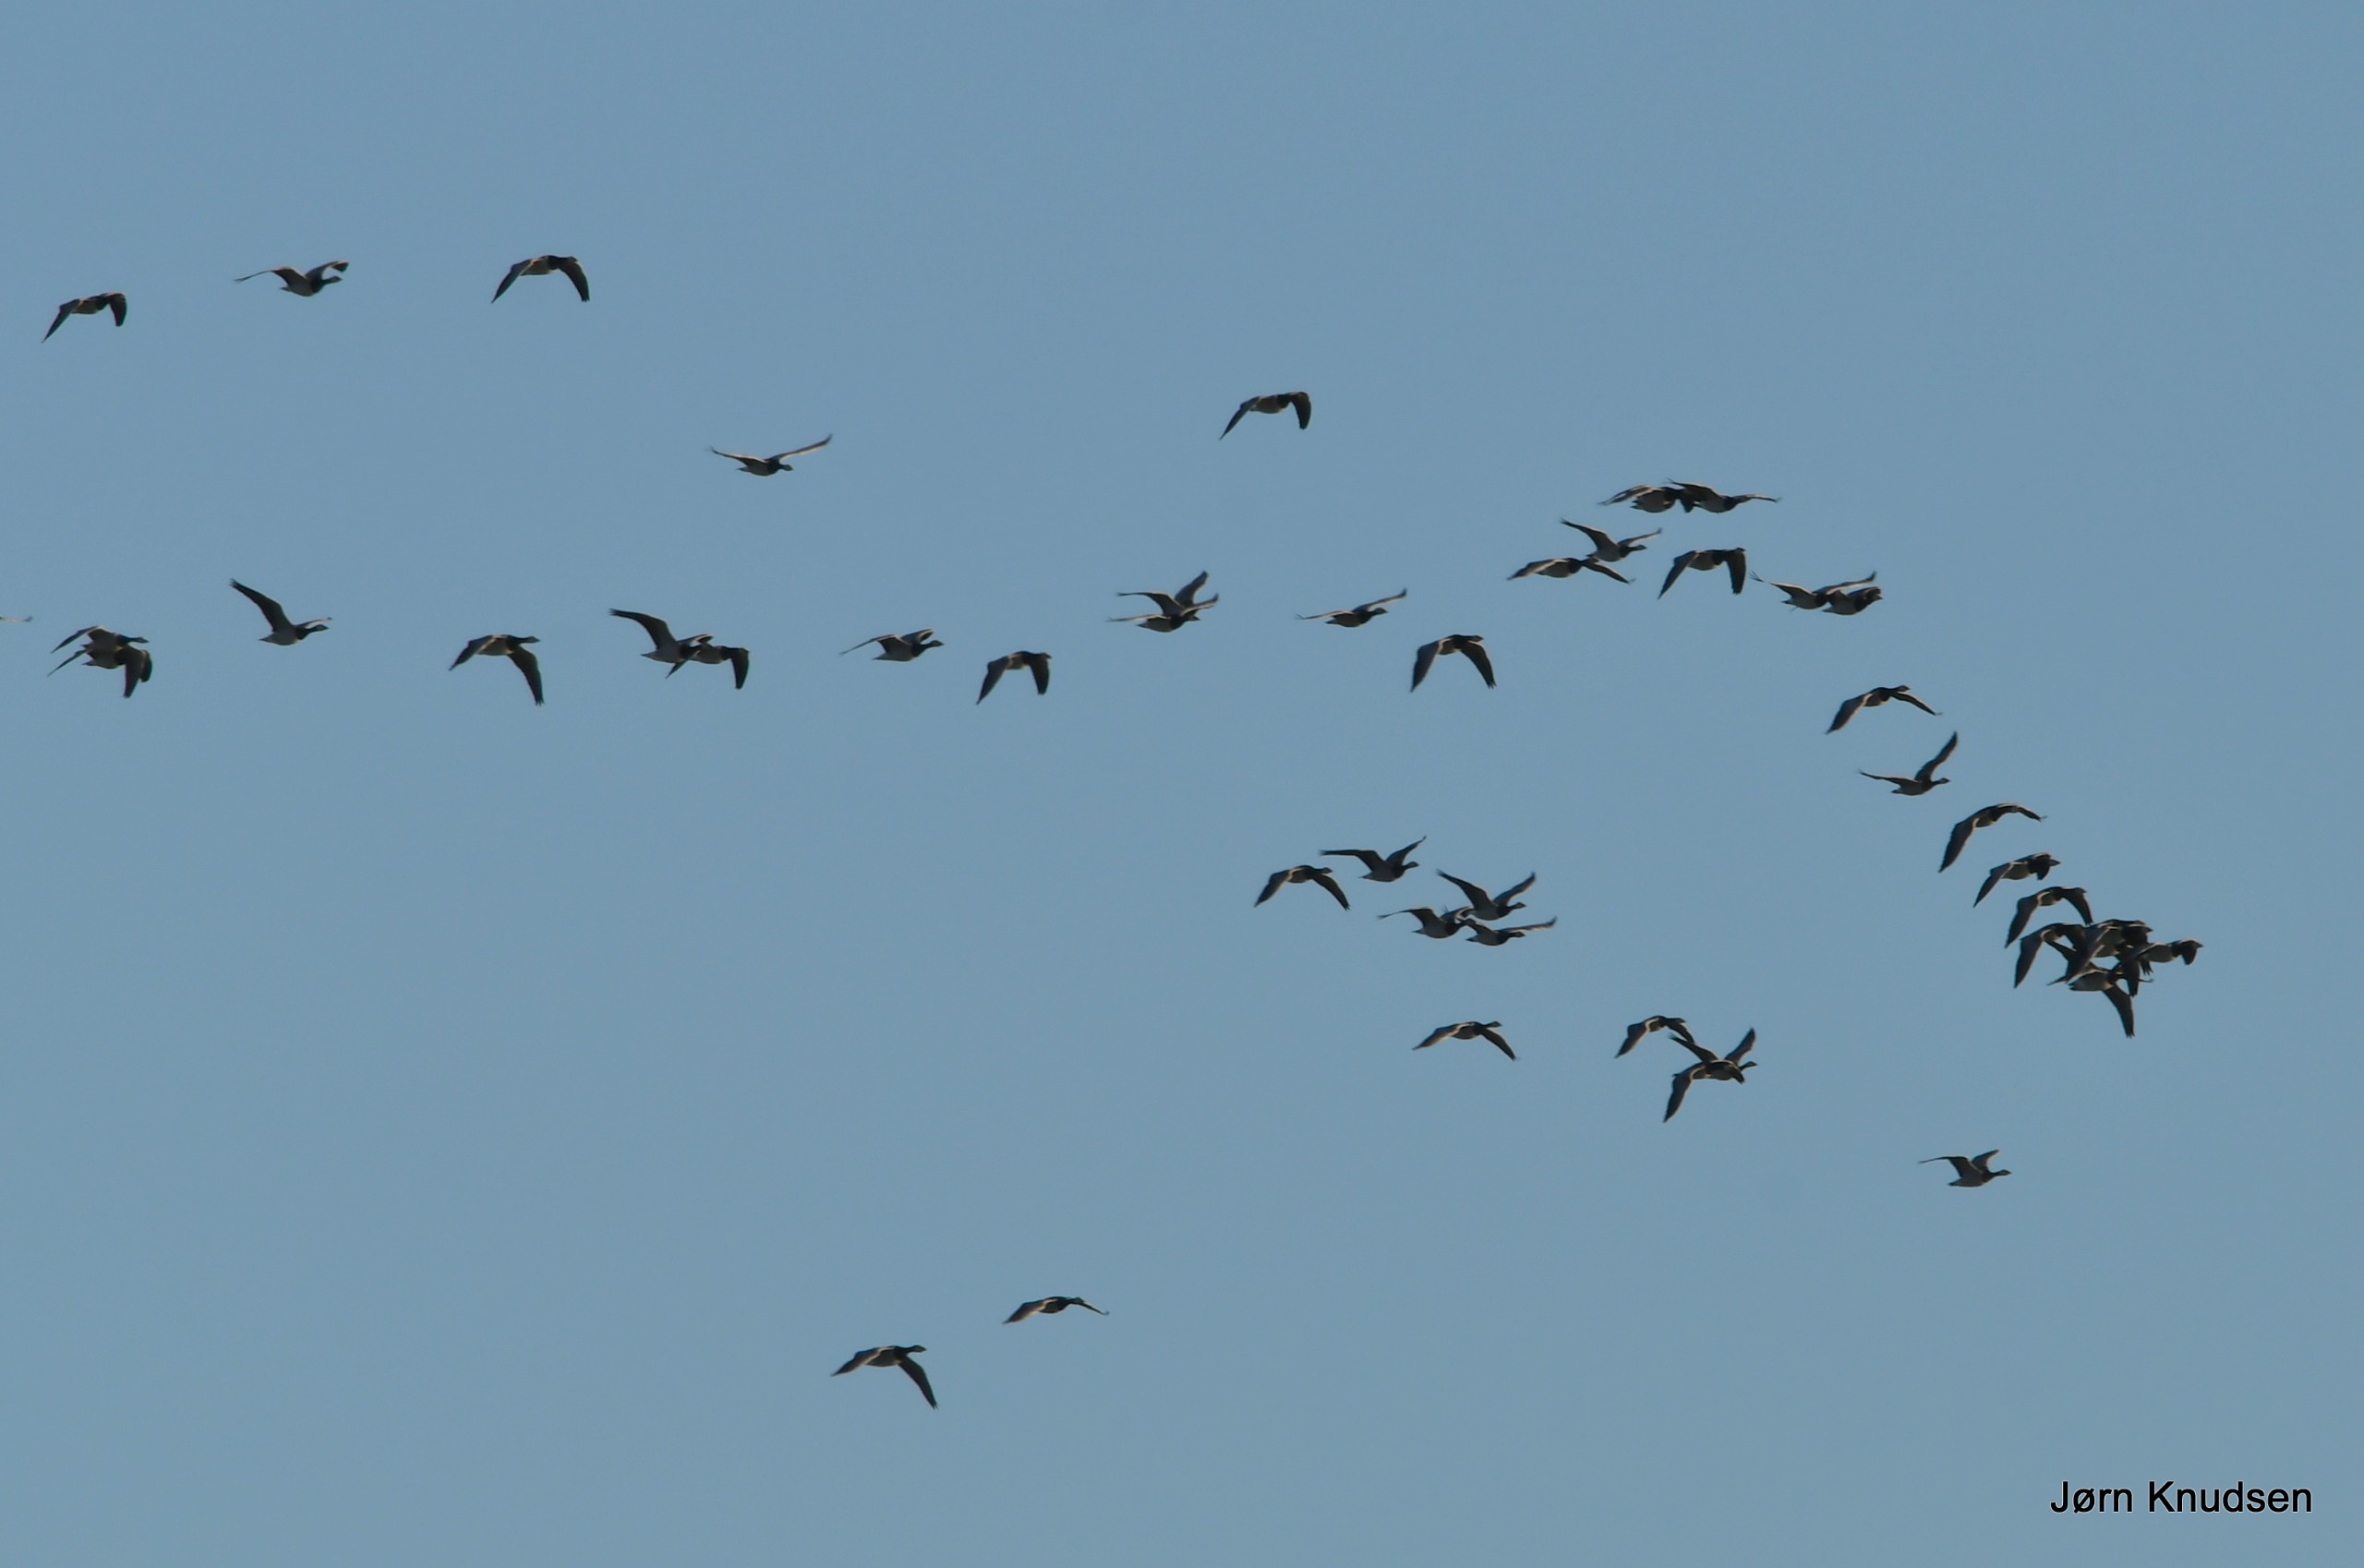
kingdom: Animalia
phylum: Chordata
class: Aves
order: Anseriformes
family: Anatidae
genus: Branta
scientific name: Branta leucopsis
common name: Bramgås
